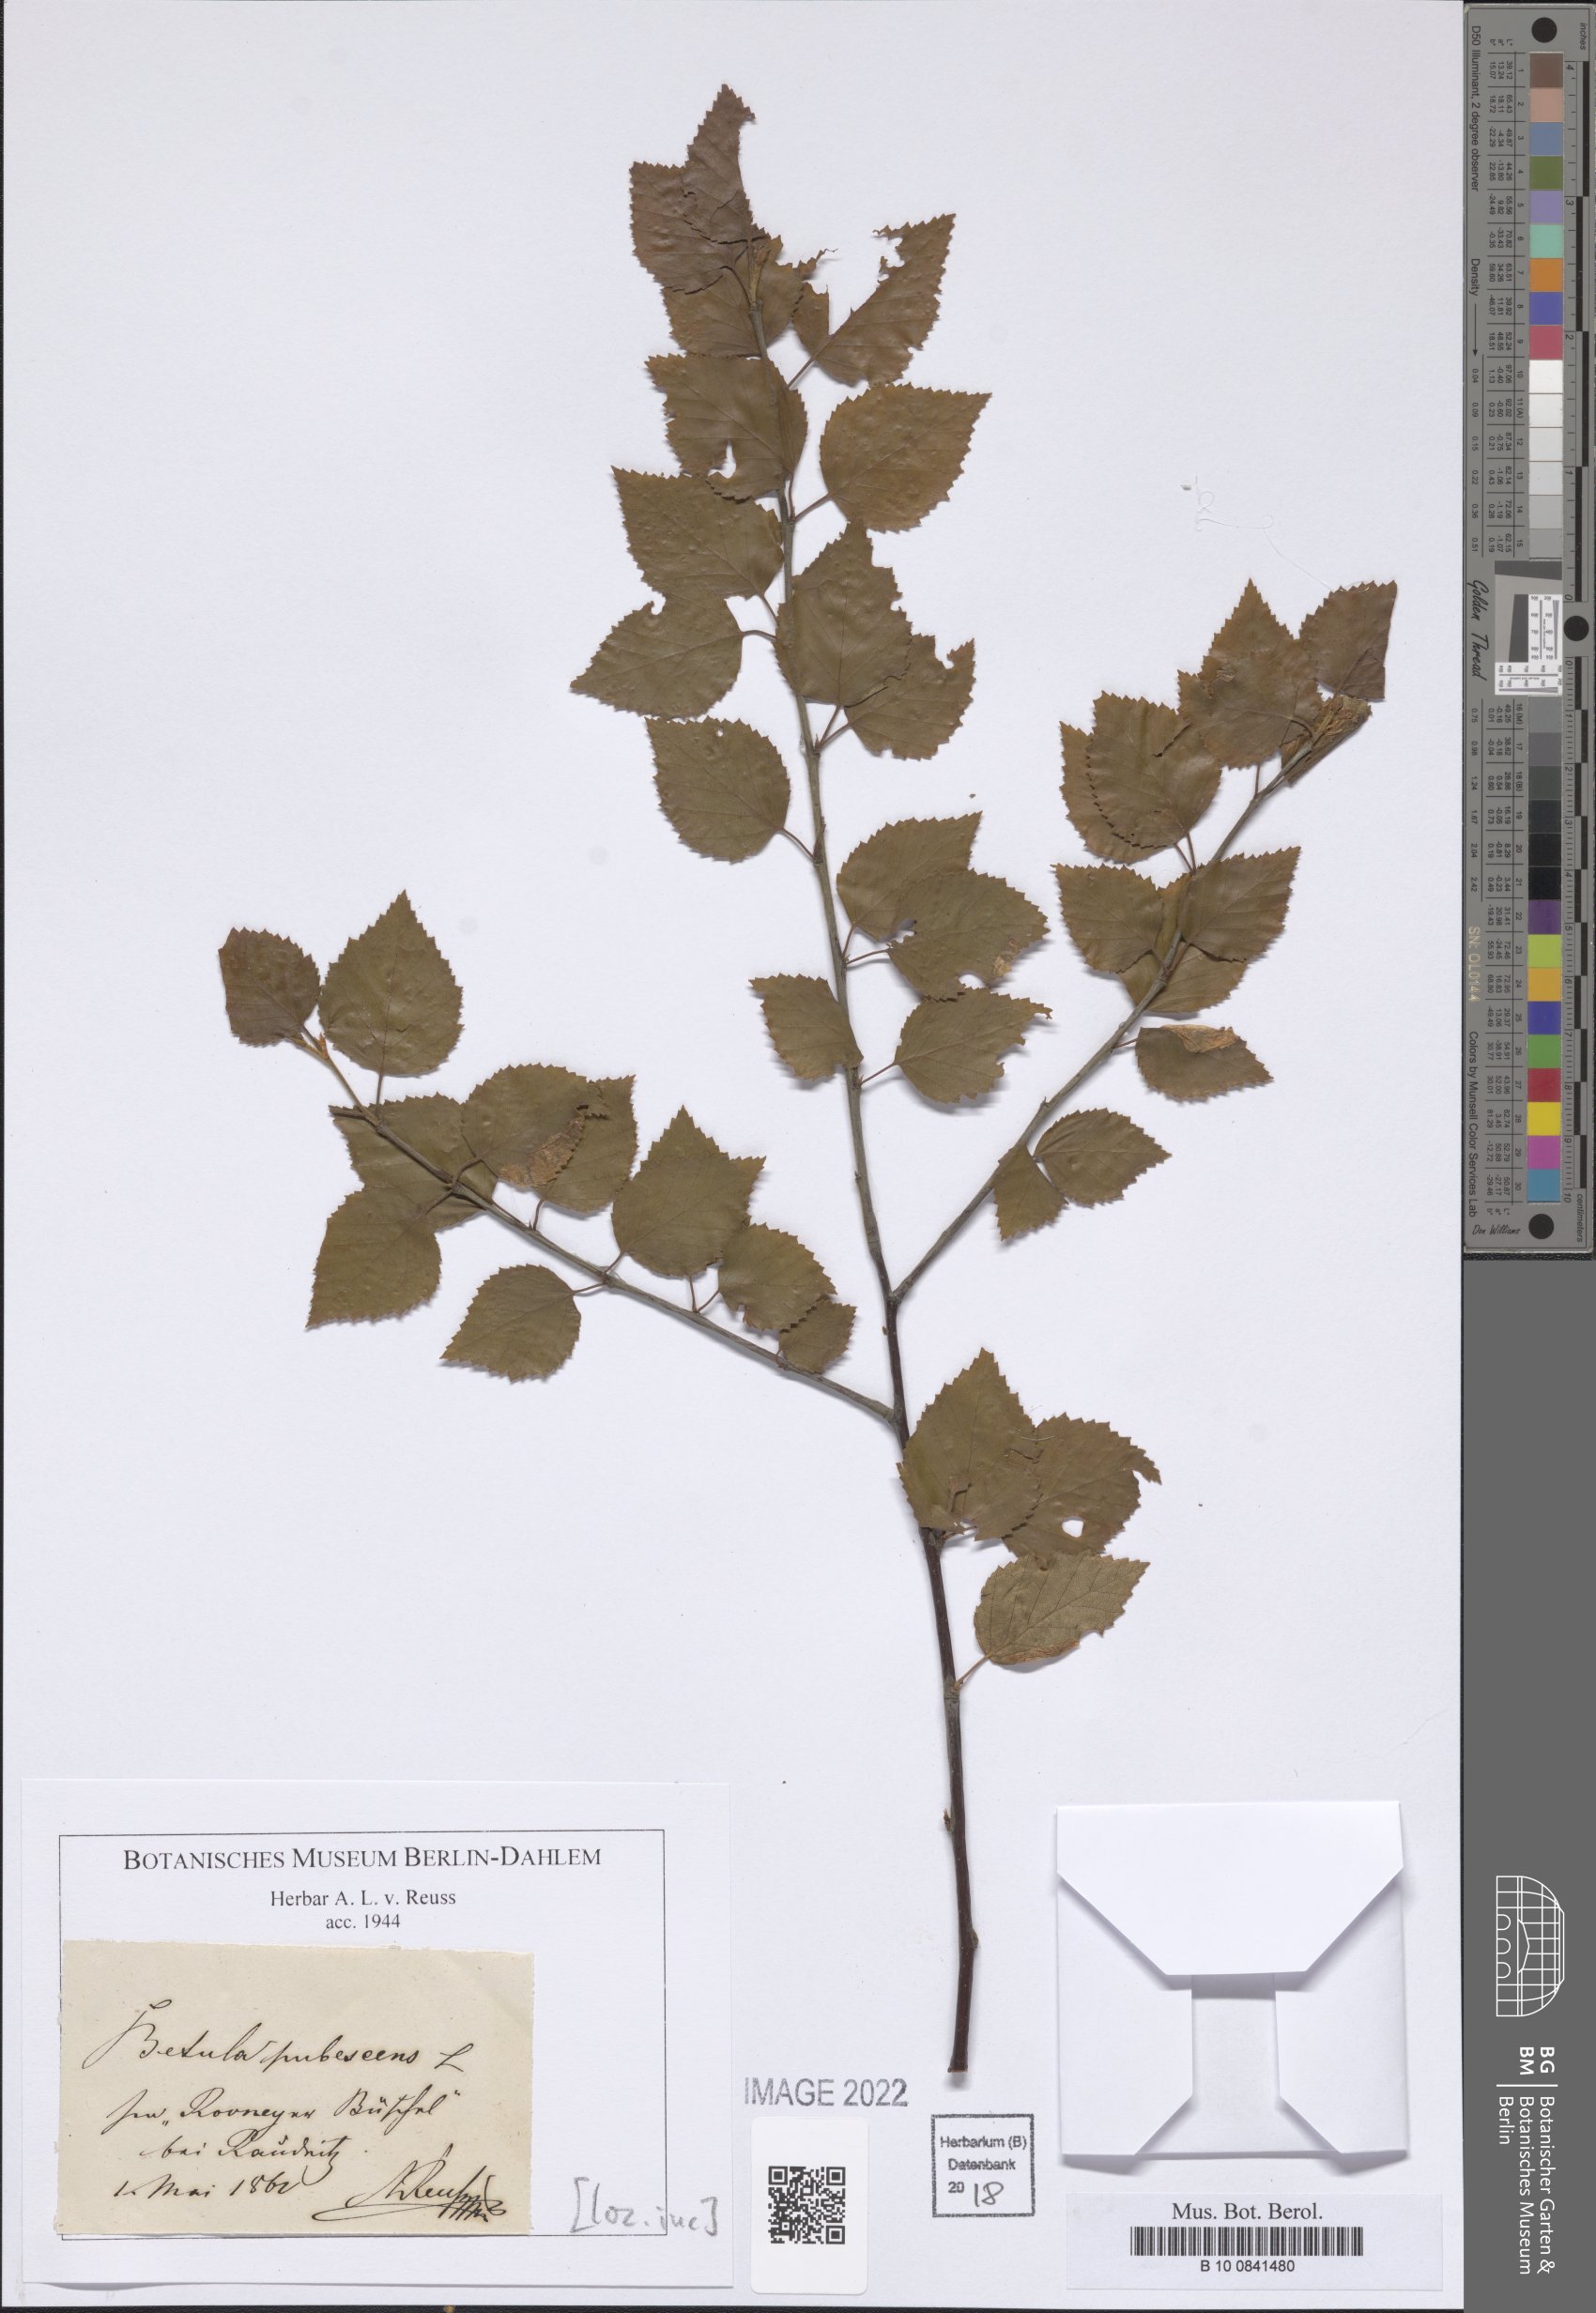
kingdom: Plantae
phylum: Tracheophyta
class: Magnoliopsida
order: Fagales
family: Betulaceae
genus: Betula
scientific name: Betula pubescens
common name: Downy birch
